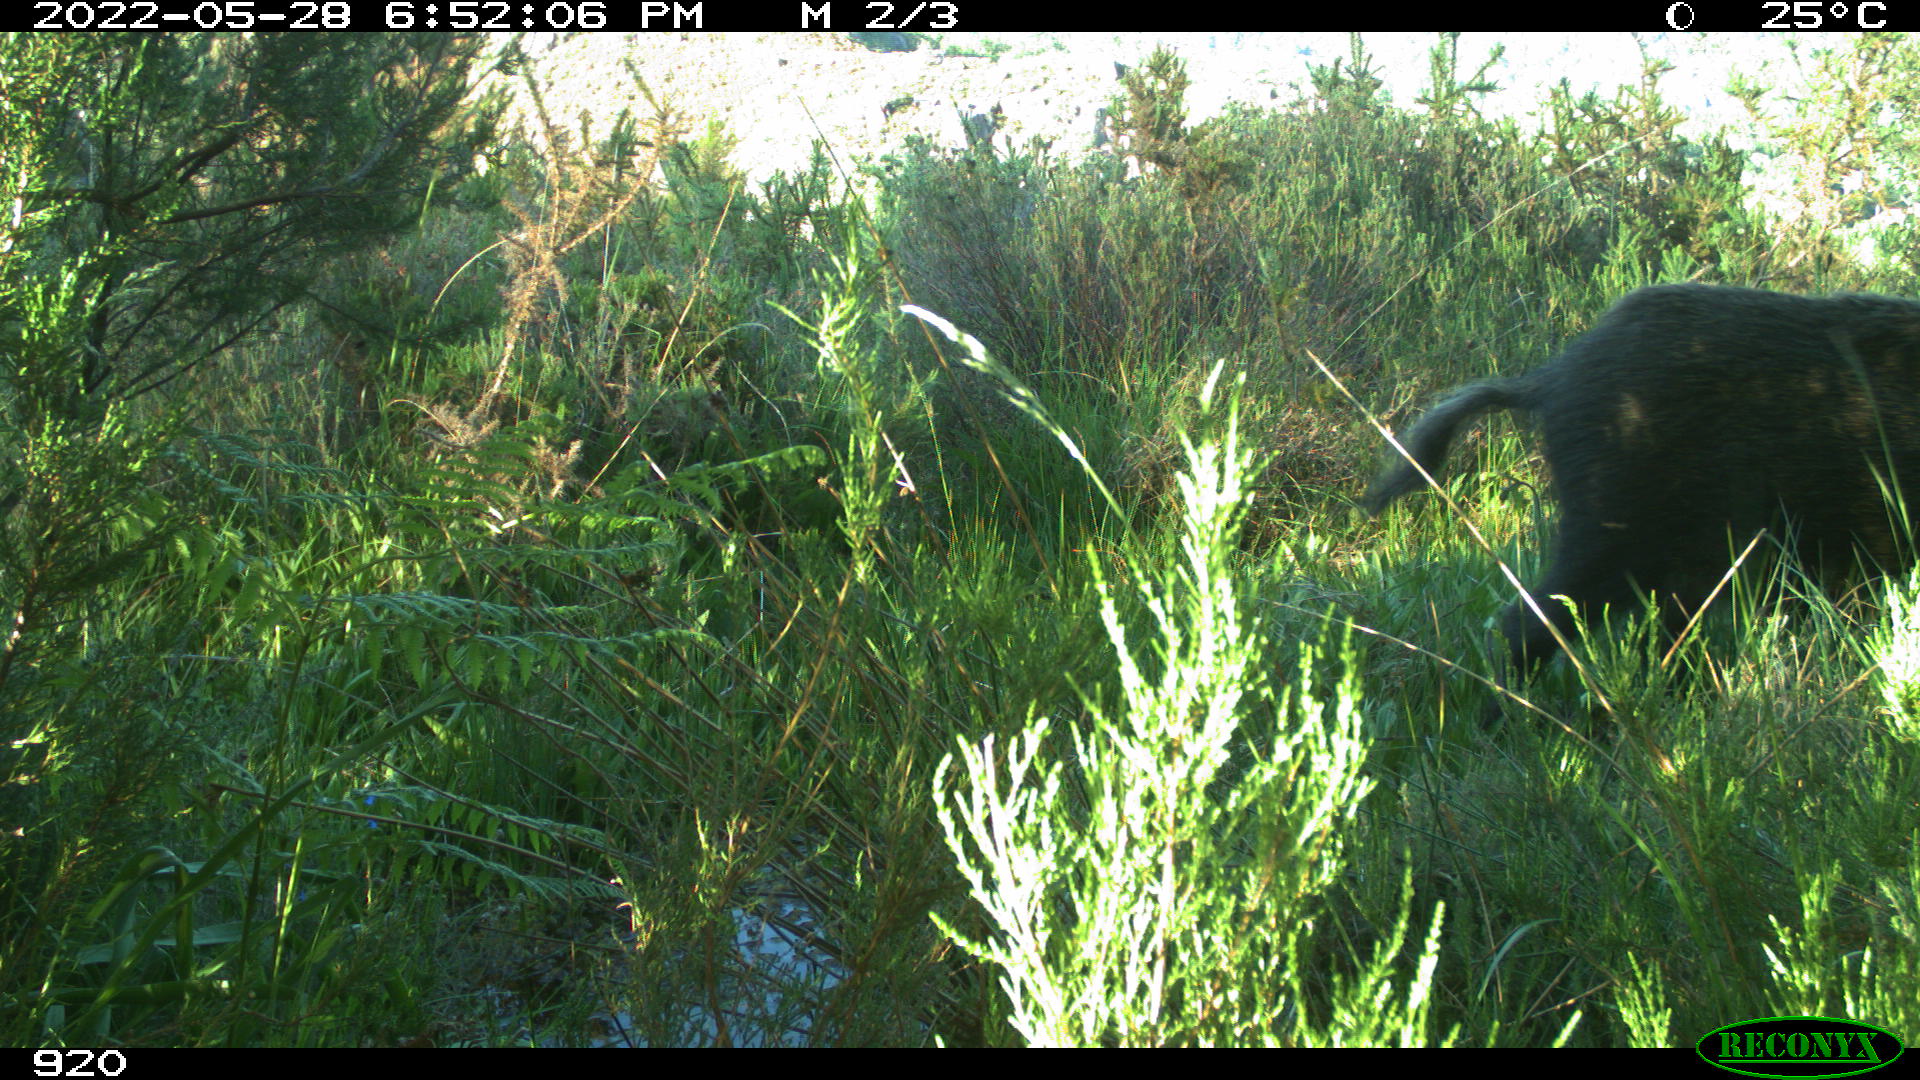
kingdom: Animalia
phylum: Chordata
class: Mammalia
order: Artiodactyla
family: Suidae
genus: Sus
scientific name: Sus scrofa
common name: Wild boar
